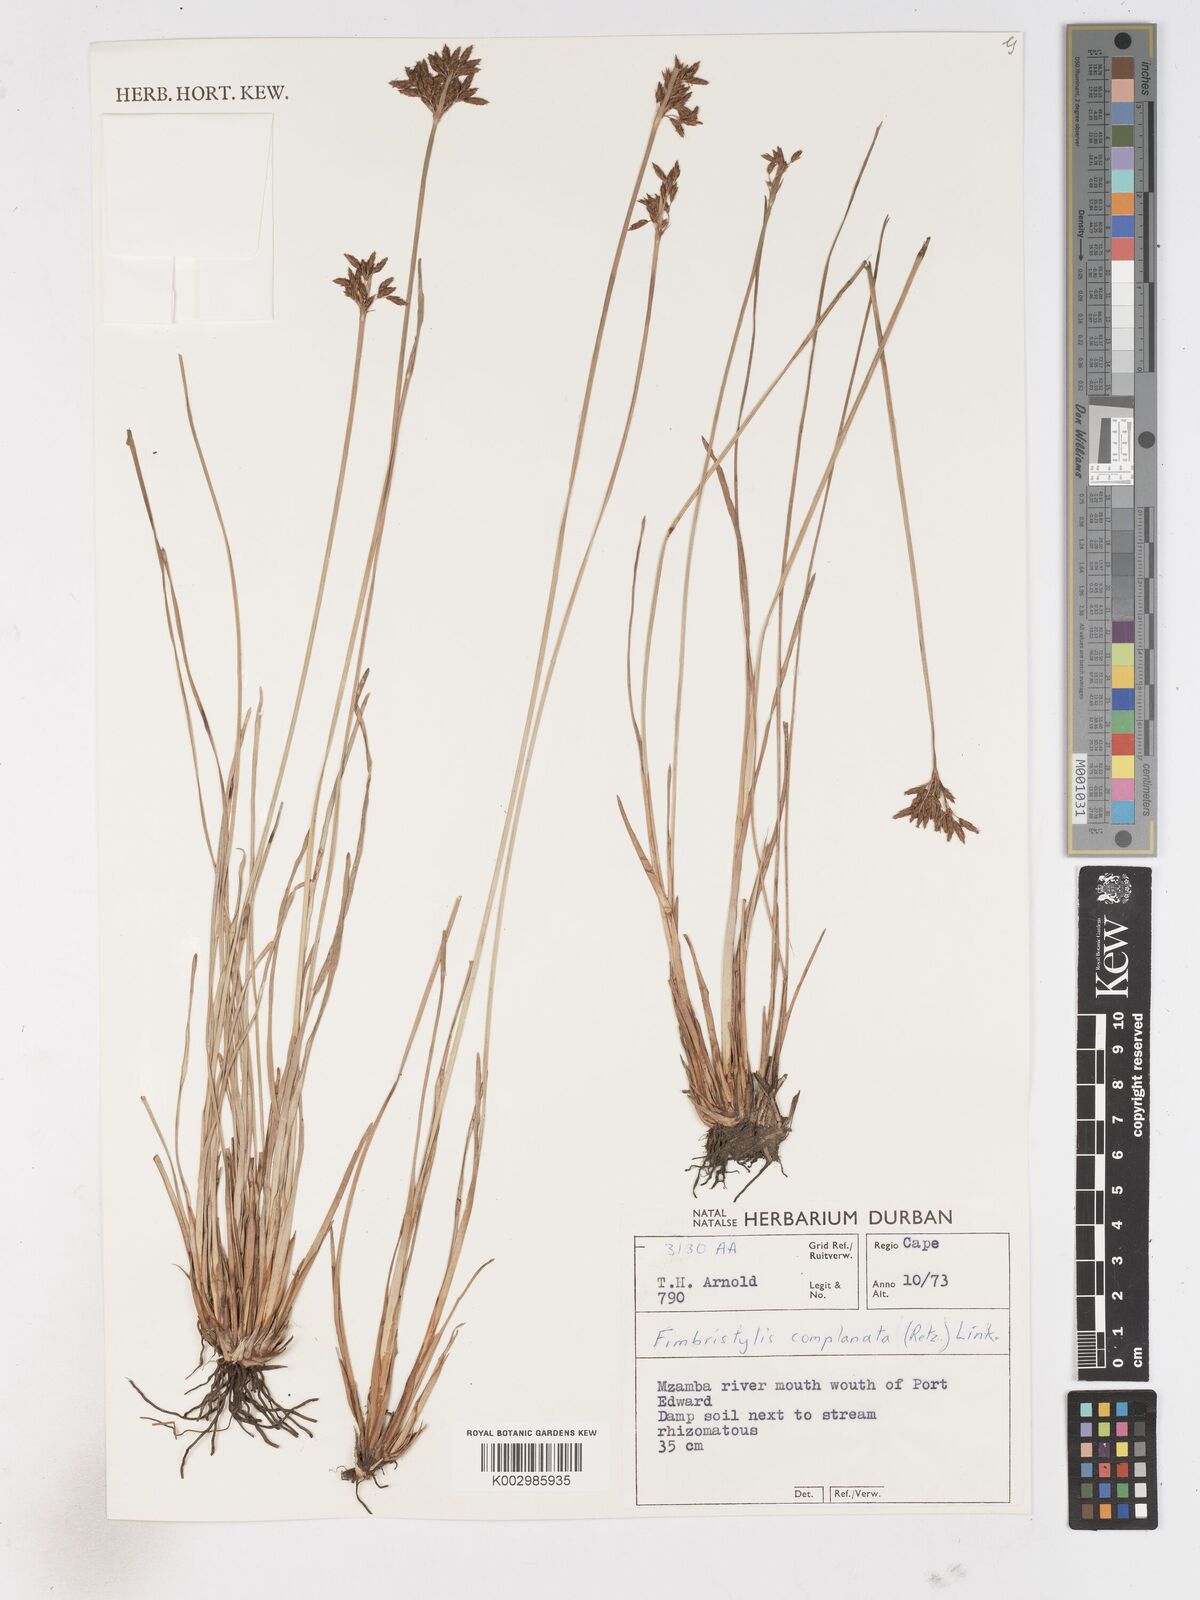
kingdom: Plantae
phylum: Tracheophyta
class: Liliopsida
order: Poales
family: Cyperaceae
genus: Fimbristylis
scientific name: Fimbristylis complanata
